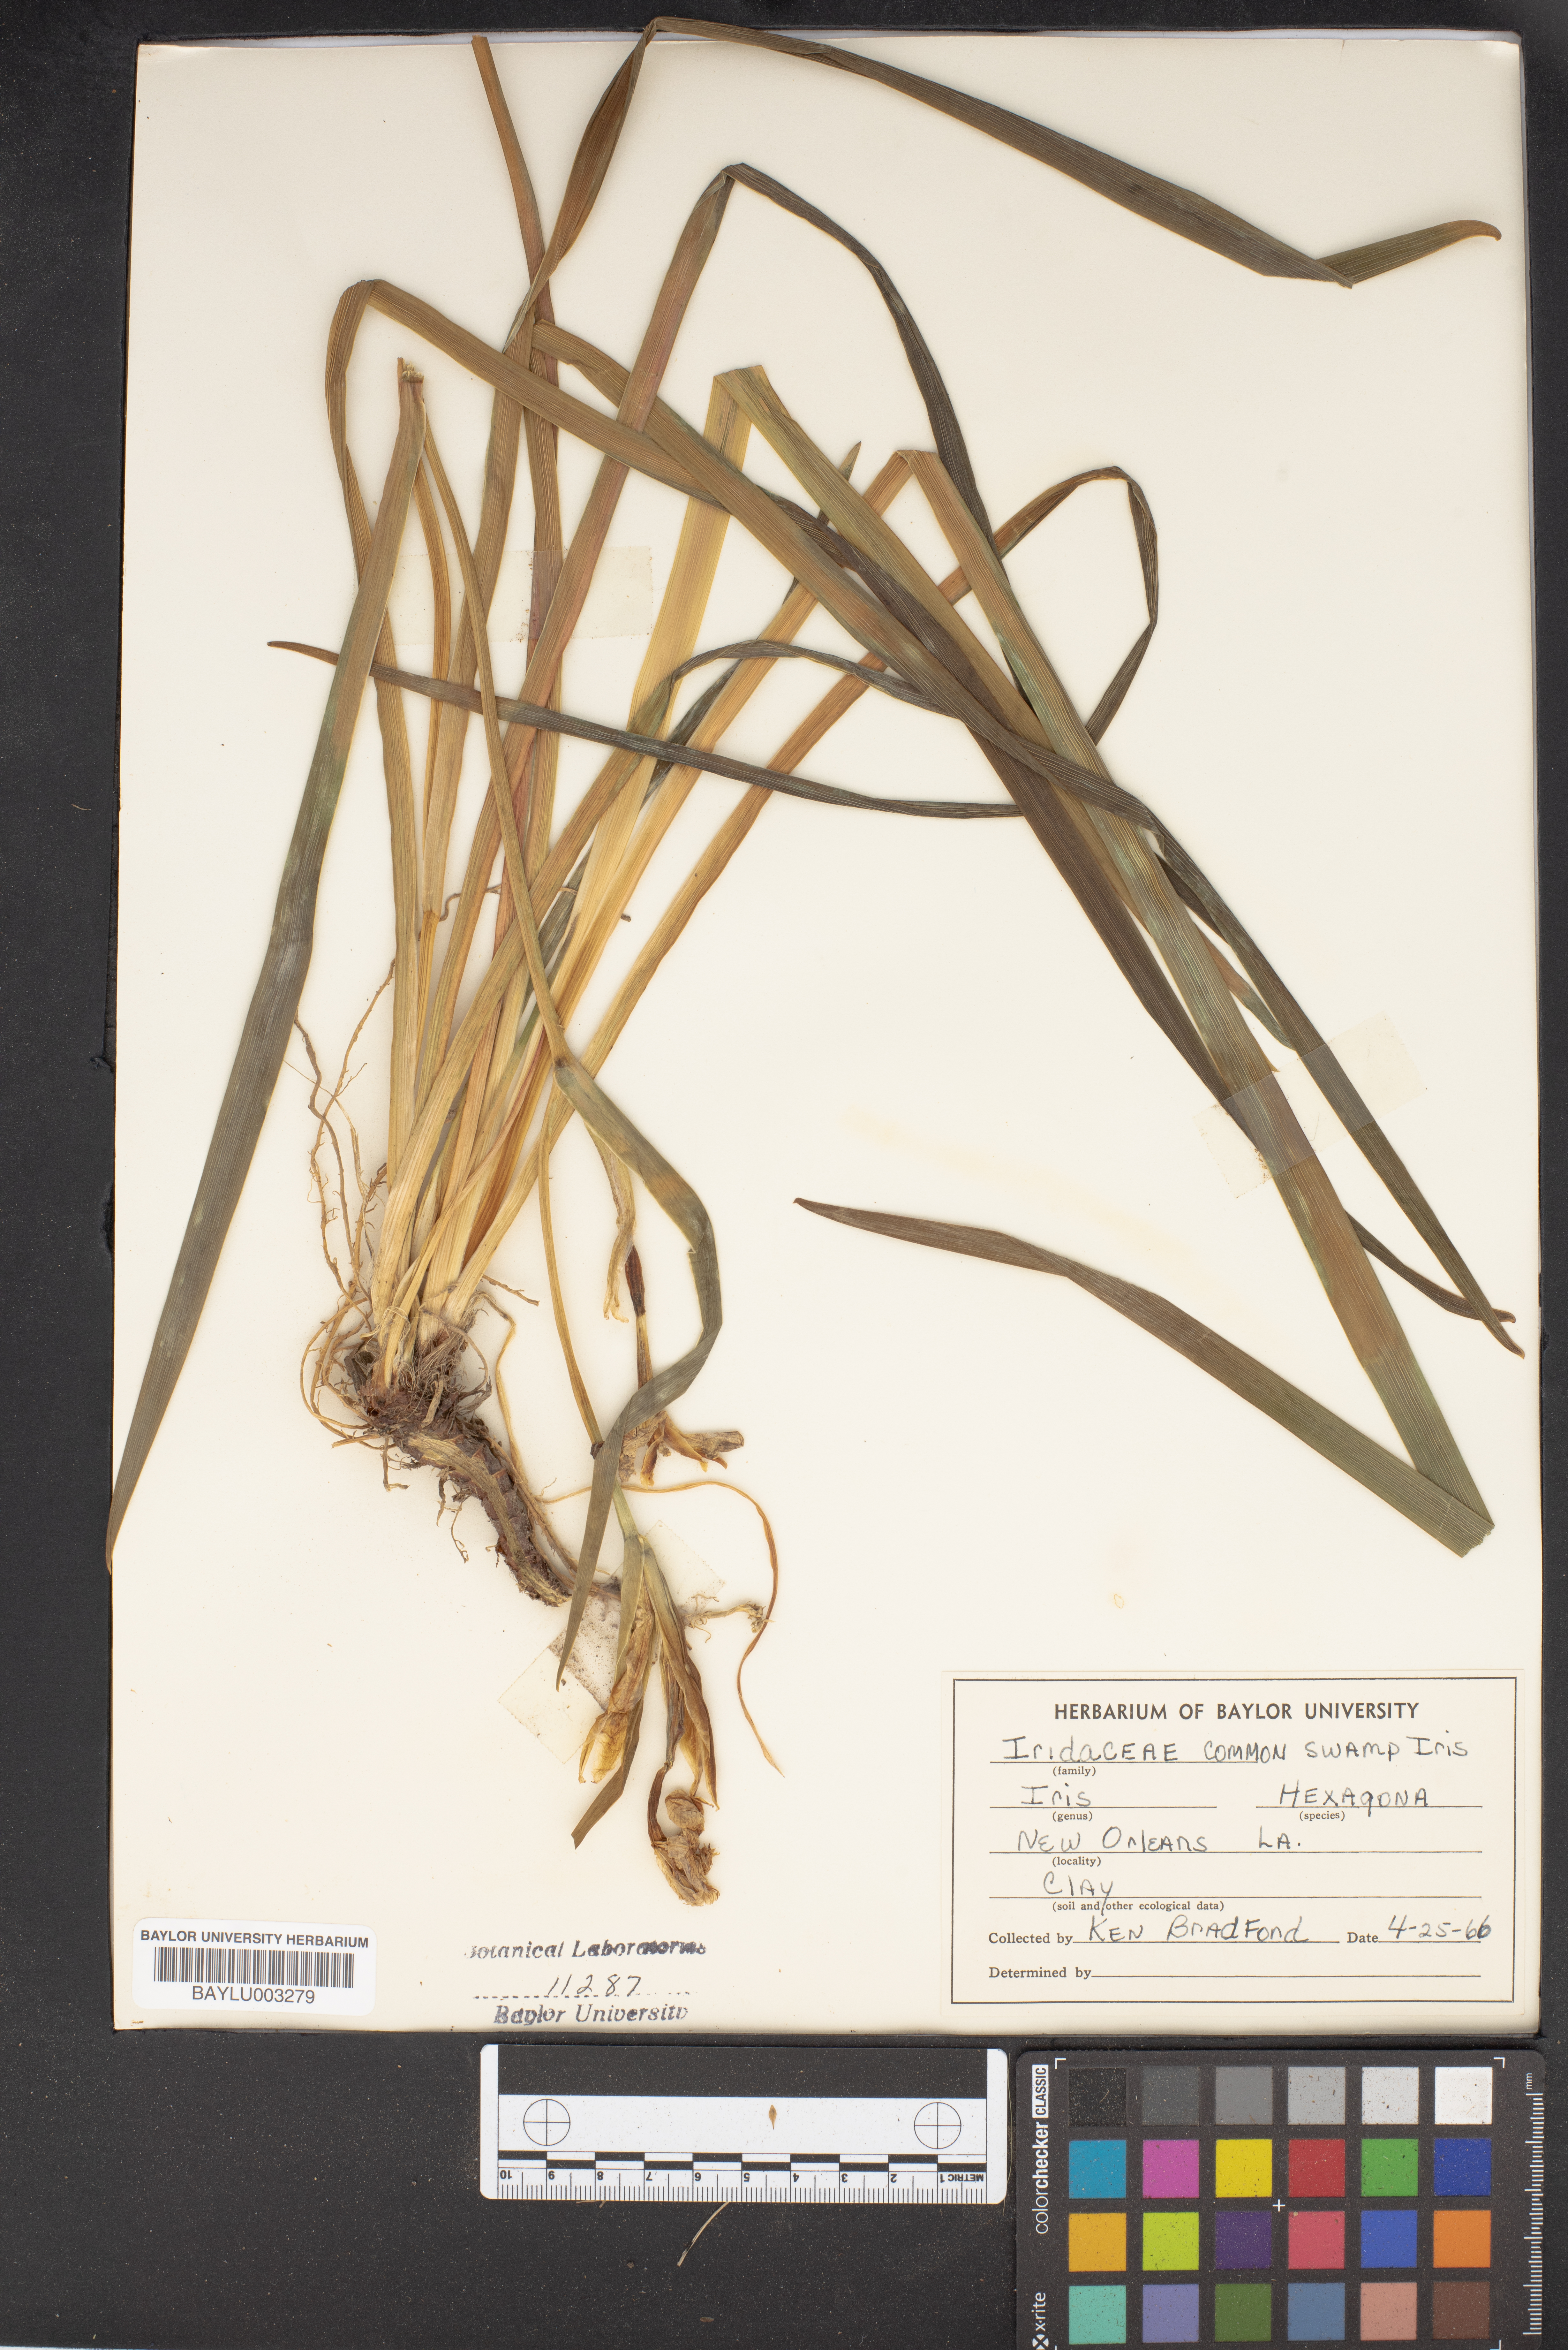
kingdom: Plantae
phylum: Tracheophyta
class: Liliopsida
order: Asparagales
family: Iridaceae
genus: Iris
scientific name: Iris hexagona
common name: Carolina iris
